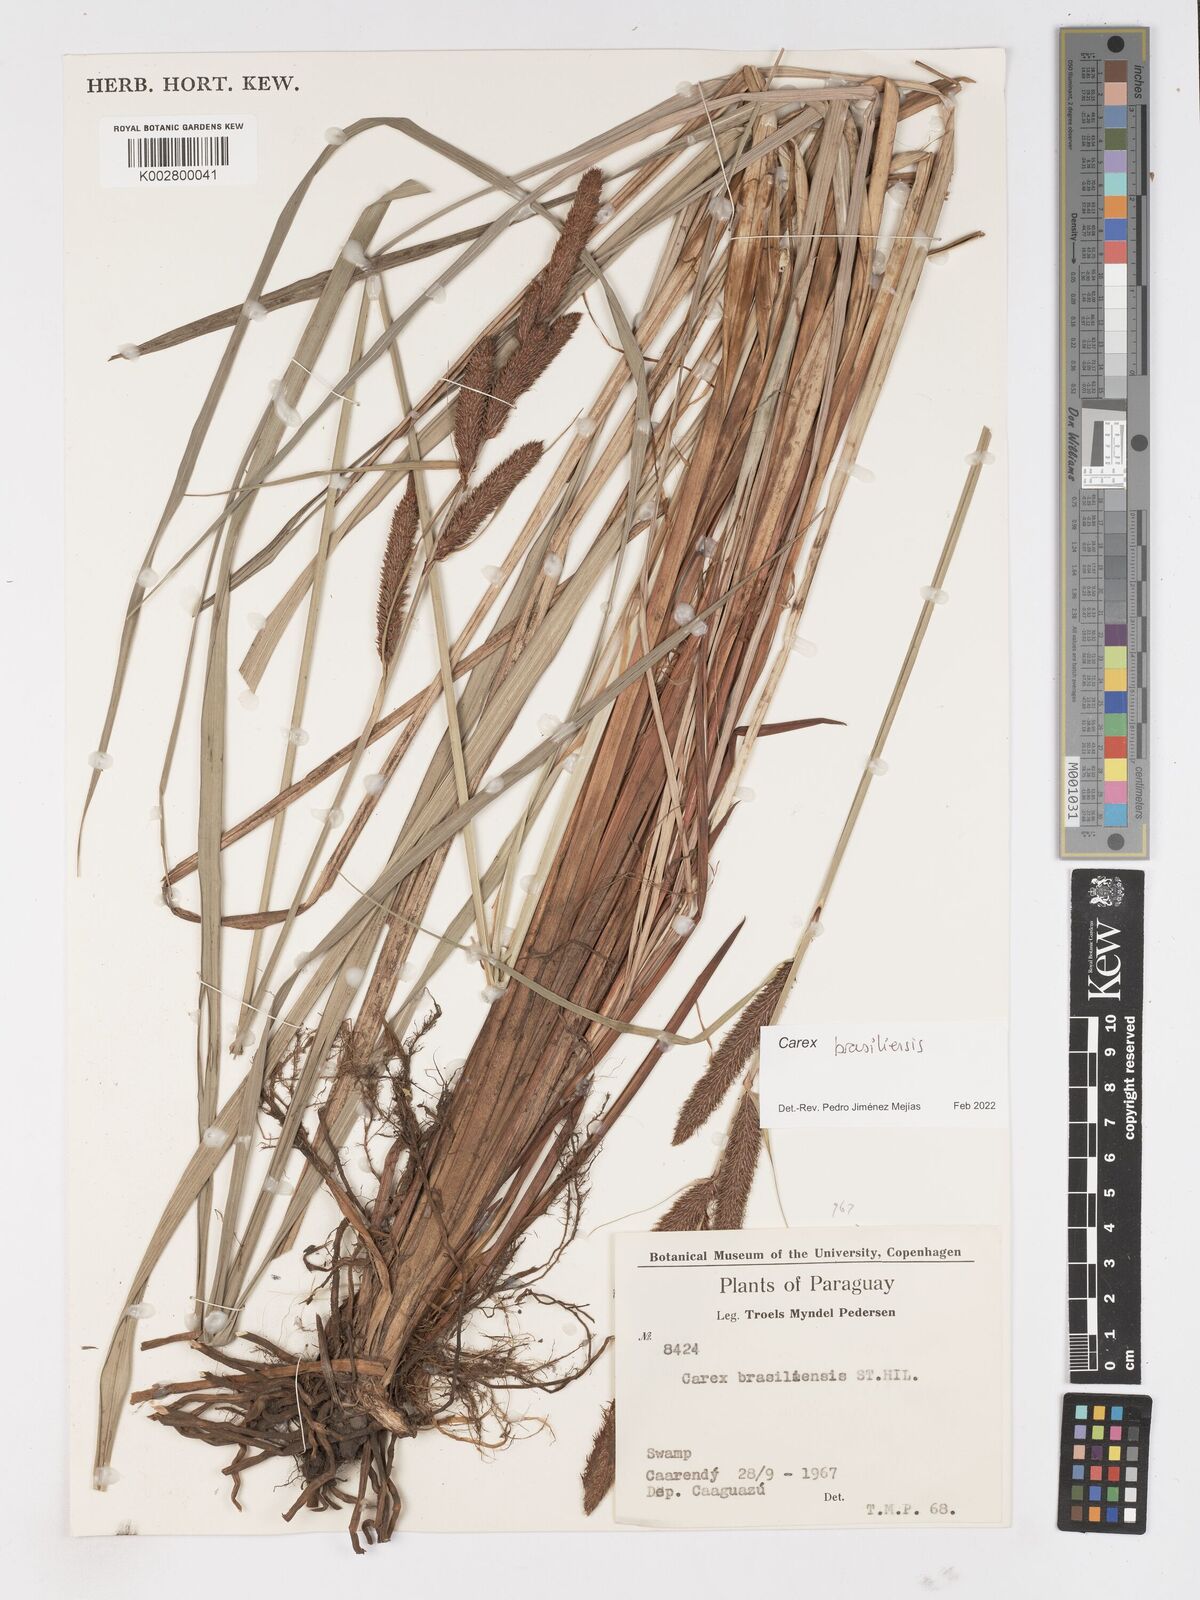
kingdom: Plantae
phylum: Tracheophyta
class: Liliopsida
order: Poales
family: Cyperaceae
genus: Carex
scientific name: Carex brasiliensis
